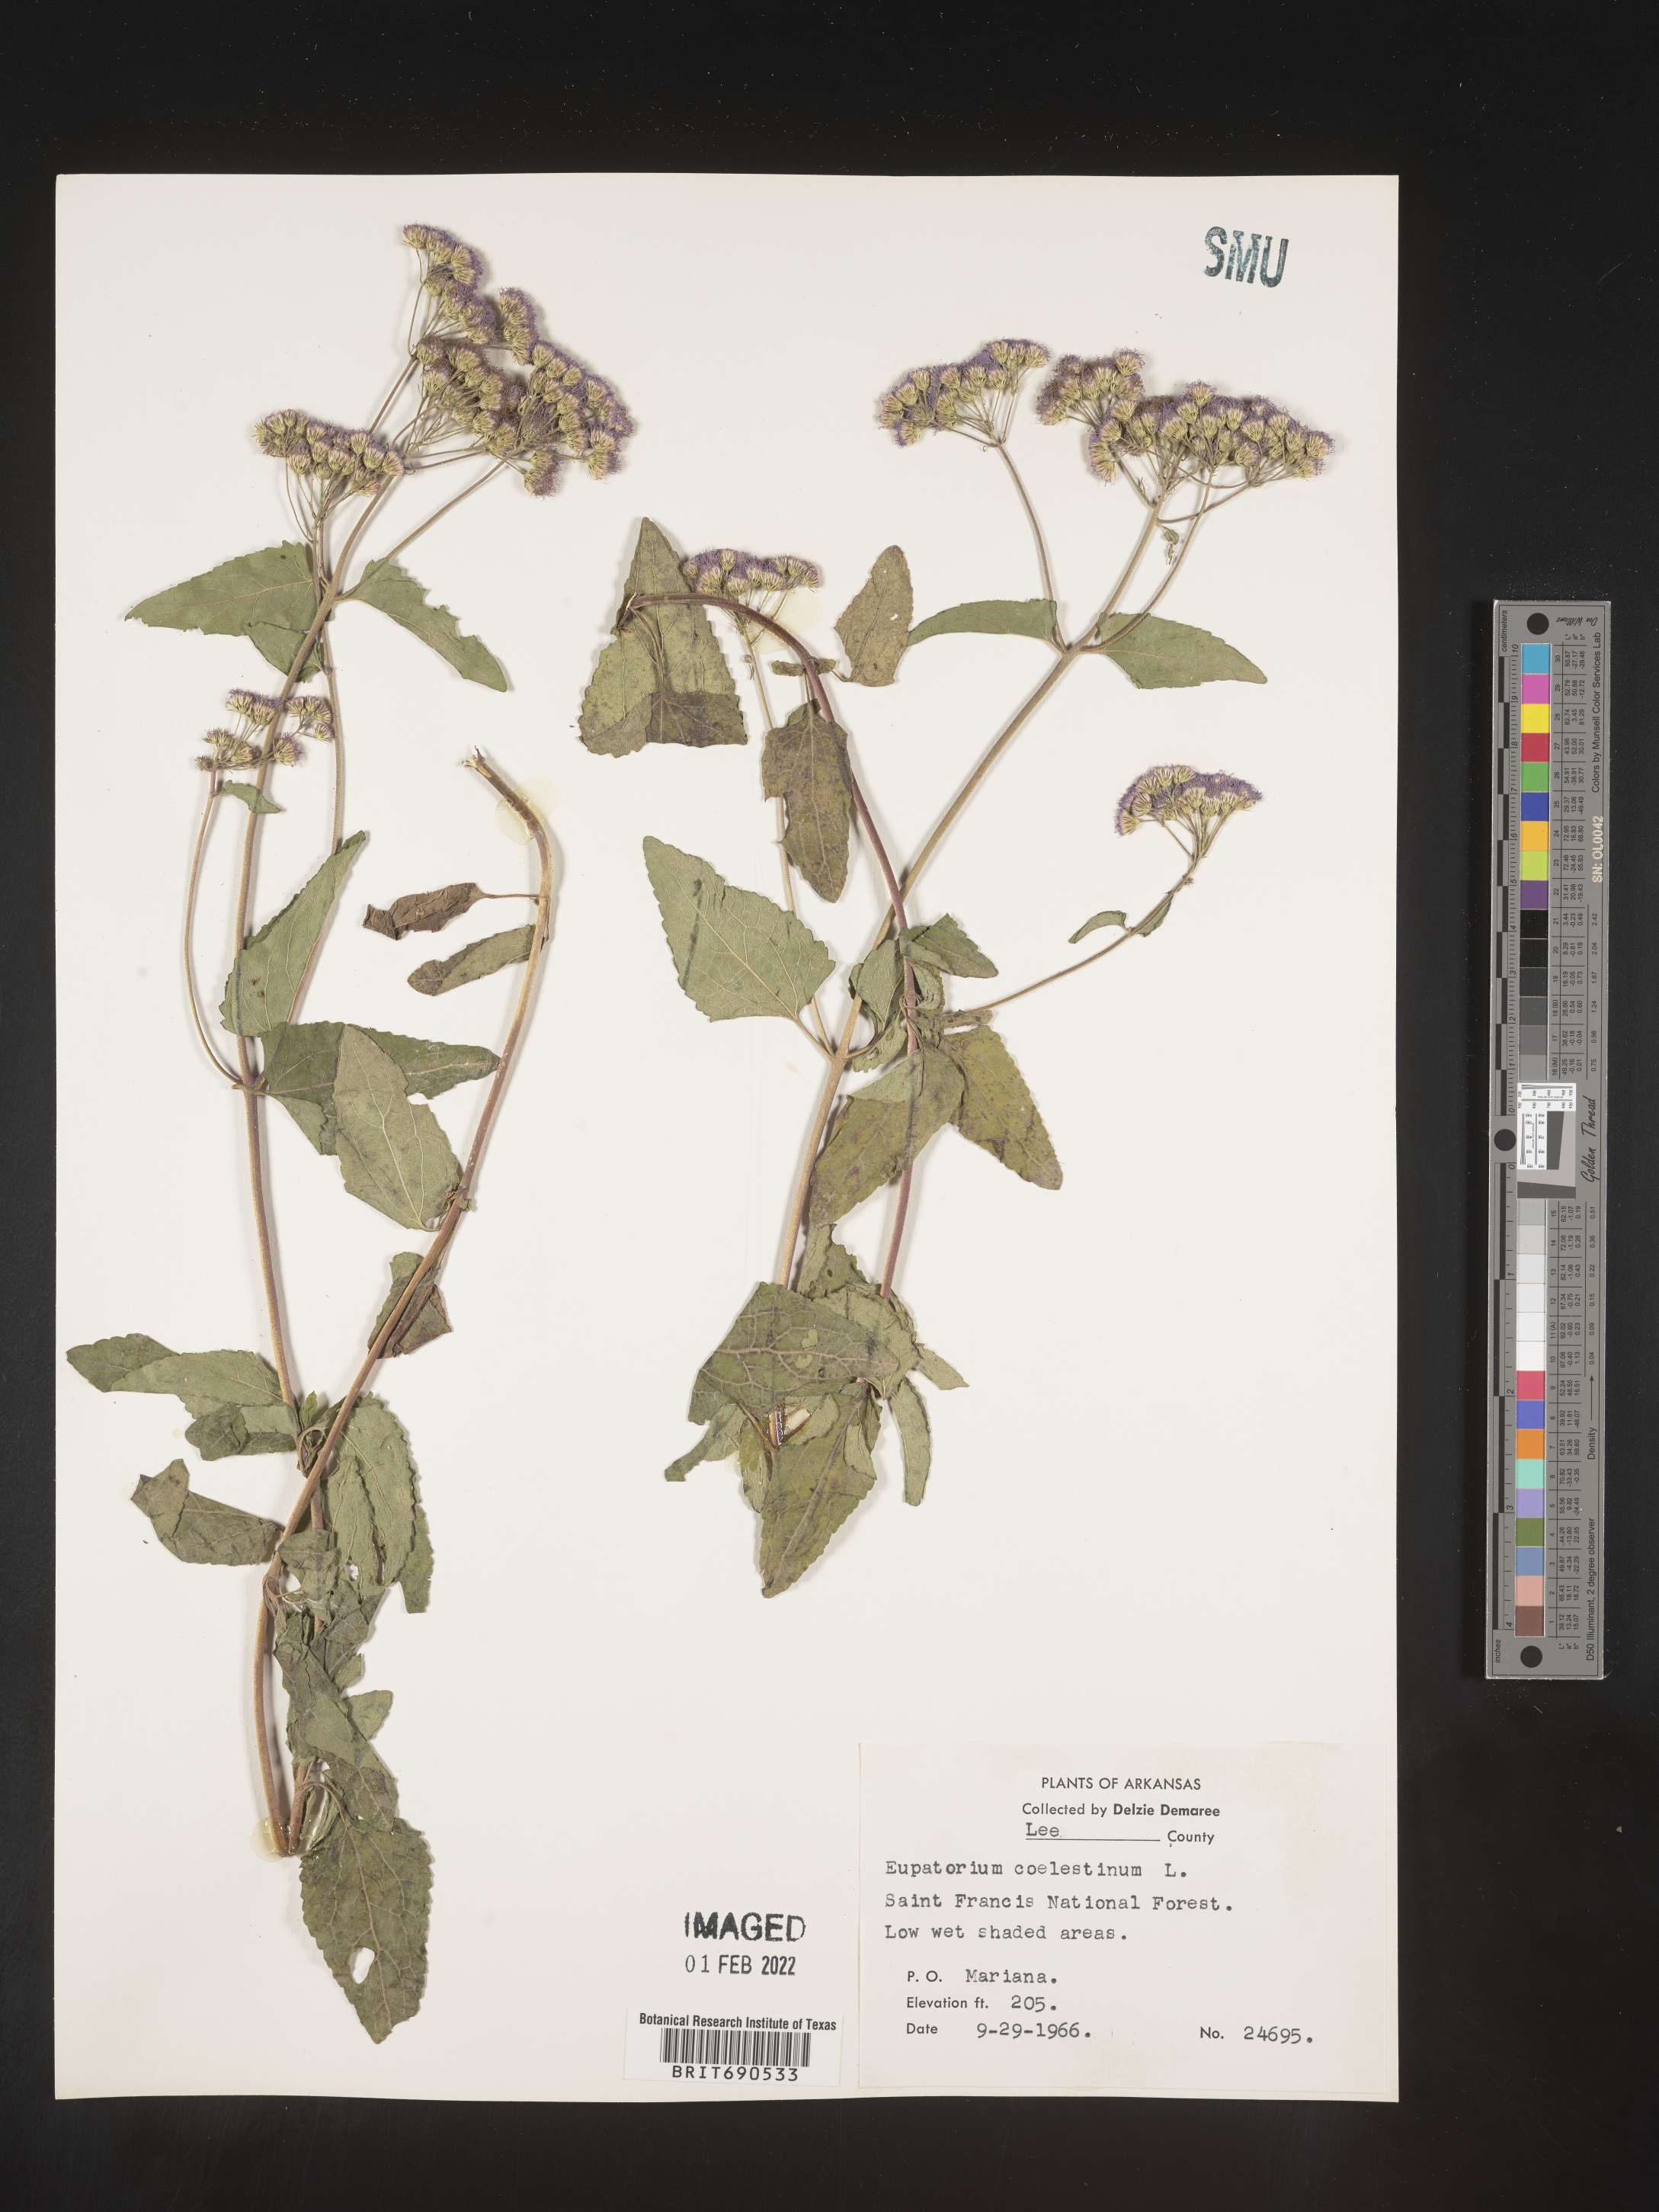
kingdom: Plantae
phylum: Tracheophyta
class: Magnoliopsida
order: Asterales
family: Asteraceae
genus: Conoclinium
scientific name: Conoclinium coelestinum
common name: Blue mistflower
